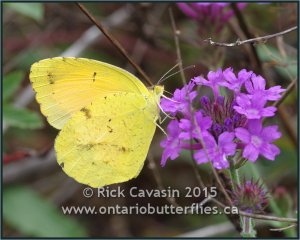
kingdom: Animalia
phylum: Arthropoda
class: Insecta
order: Lepidoptera
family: Pieridae
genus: Abaeis
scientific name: Abaeis nicippe
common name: Sleepy Orange
